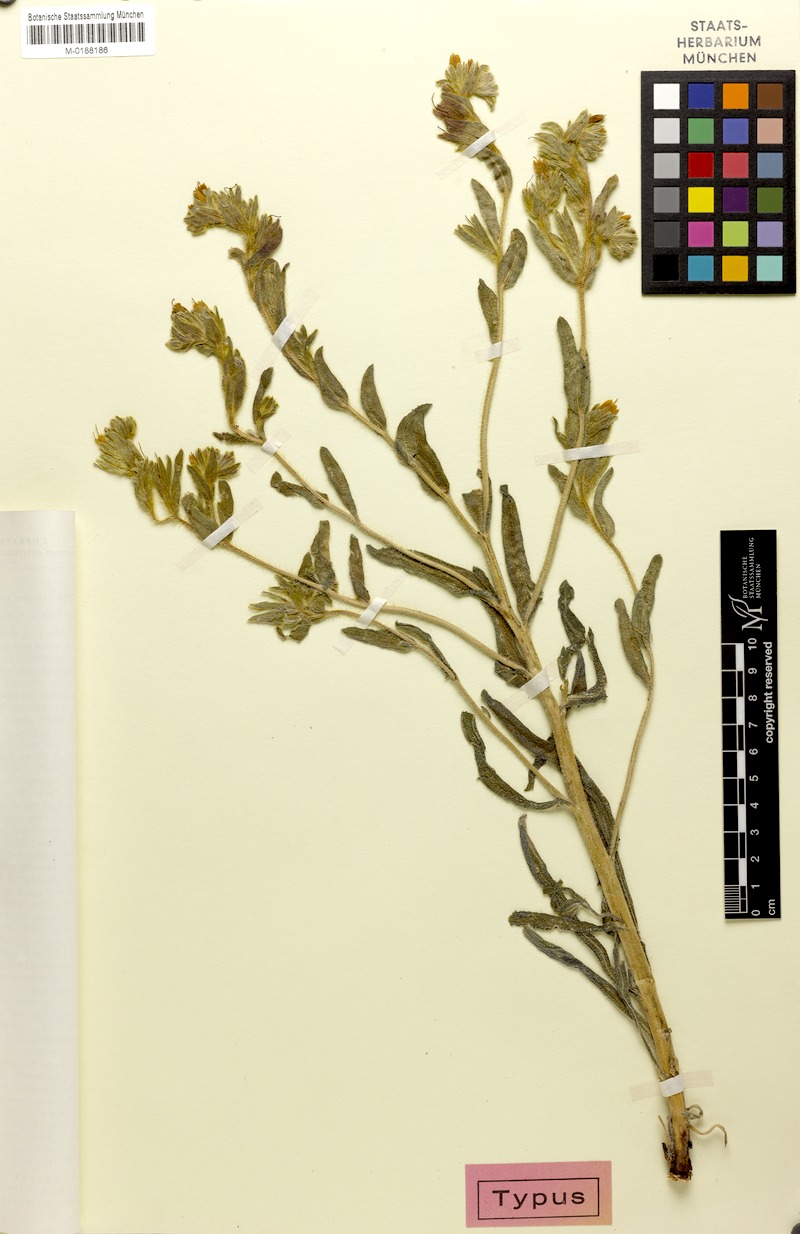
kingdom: Plantae
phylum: Tracheophyta
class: Magnoliopsida
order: Boraginales
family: Boraginaceae
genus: Onosma
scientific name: Onosma transrhymnense
